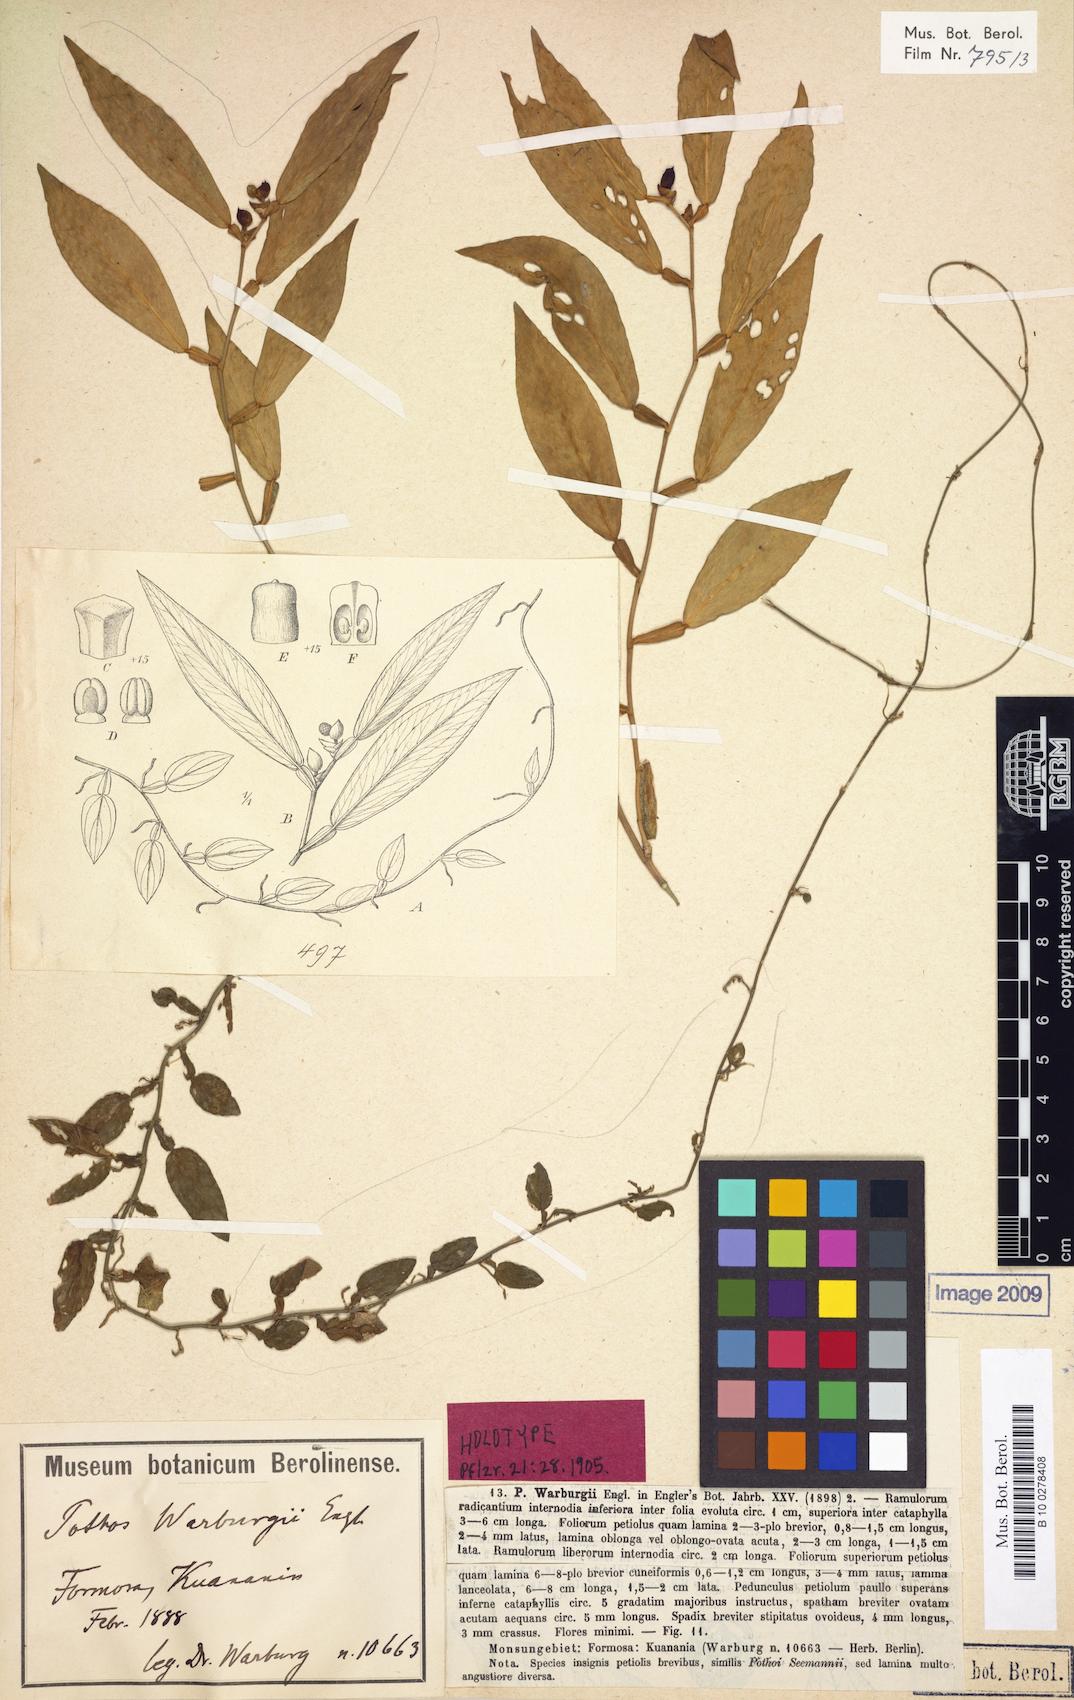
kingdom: Plantae
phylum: Tracheophyta
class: Liliopsida
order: Alismatales
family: Araceae
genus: Pothos
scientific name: Pothos chinensis
